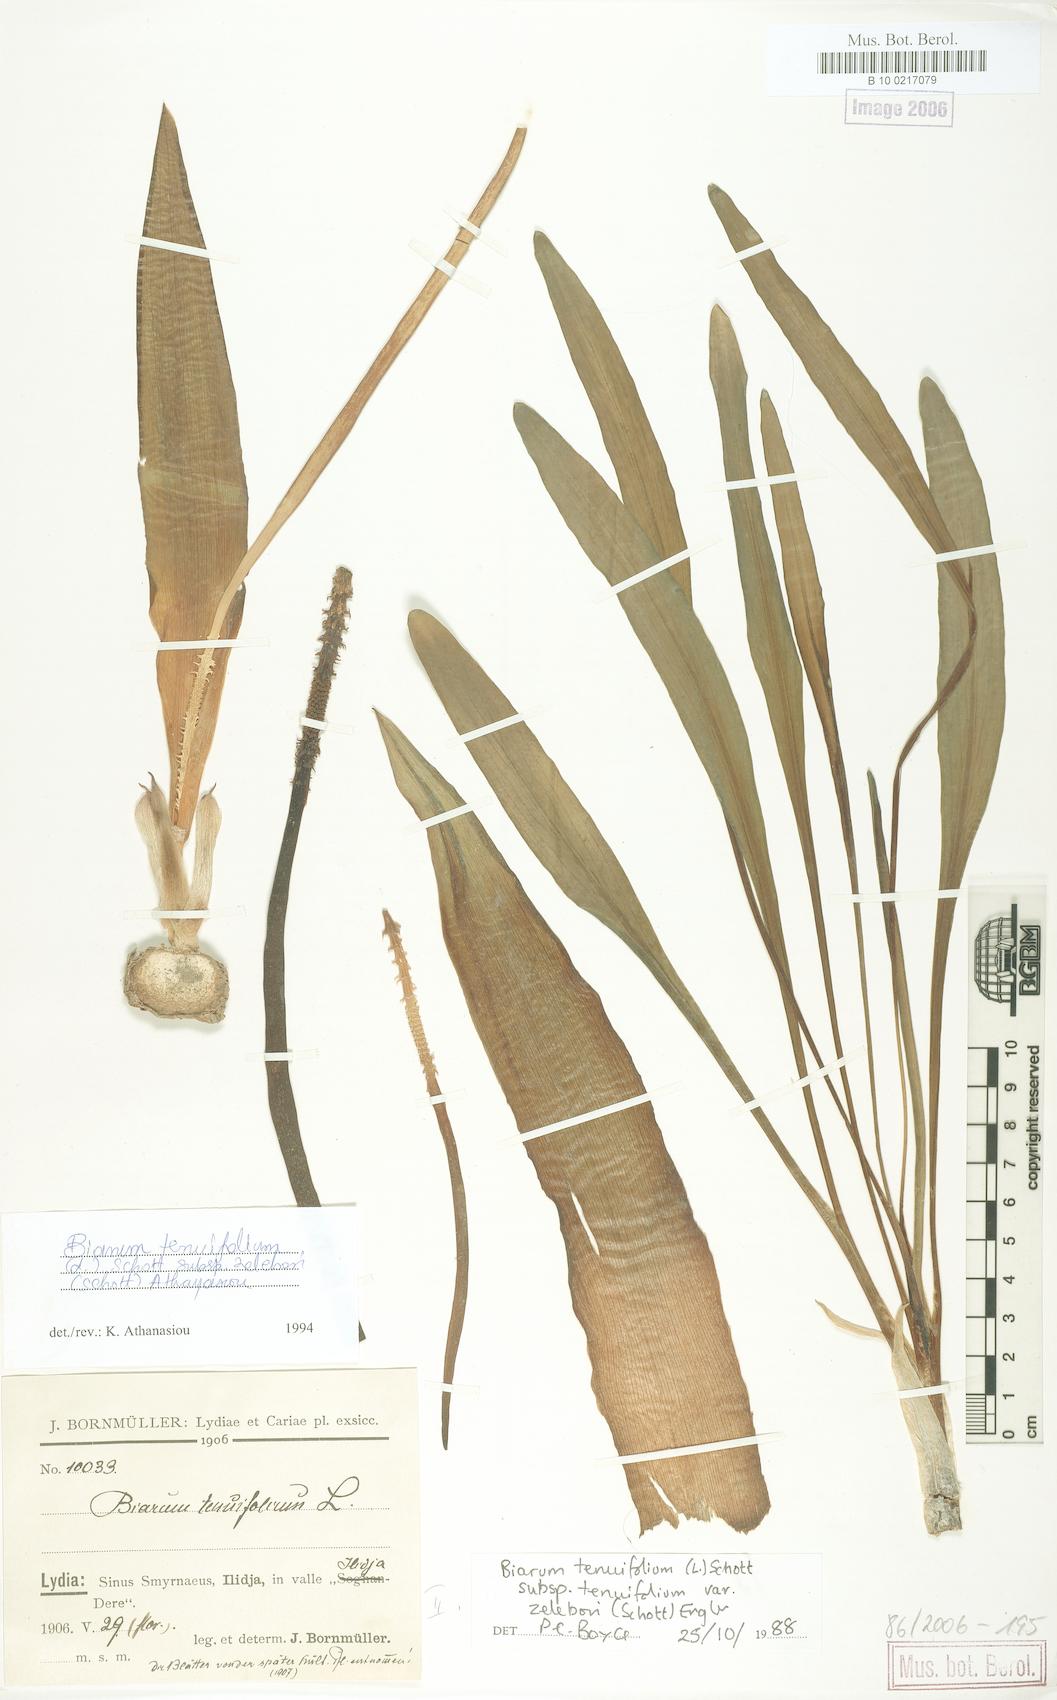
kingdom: Plantae
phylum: Tracheophyta
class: Liliopsida
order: Alismatales
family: Araceae
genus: Biarum
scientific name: Biarum tenuifolium
